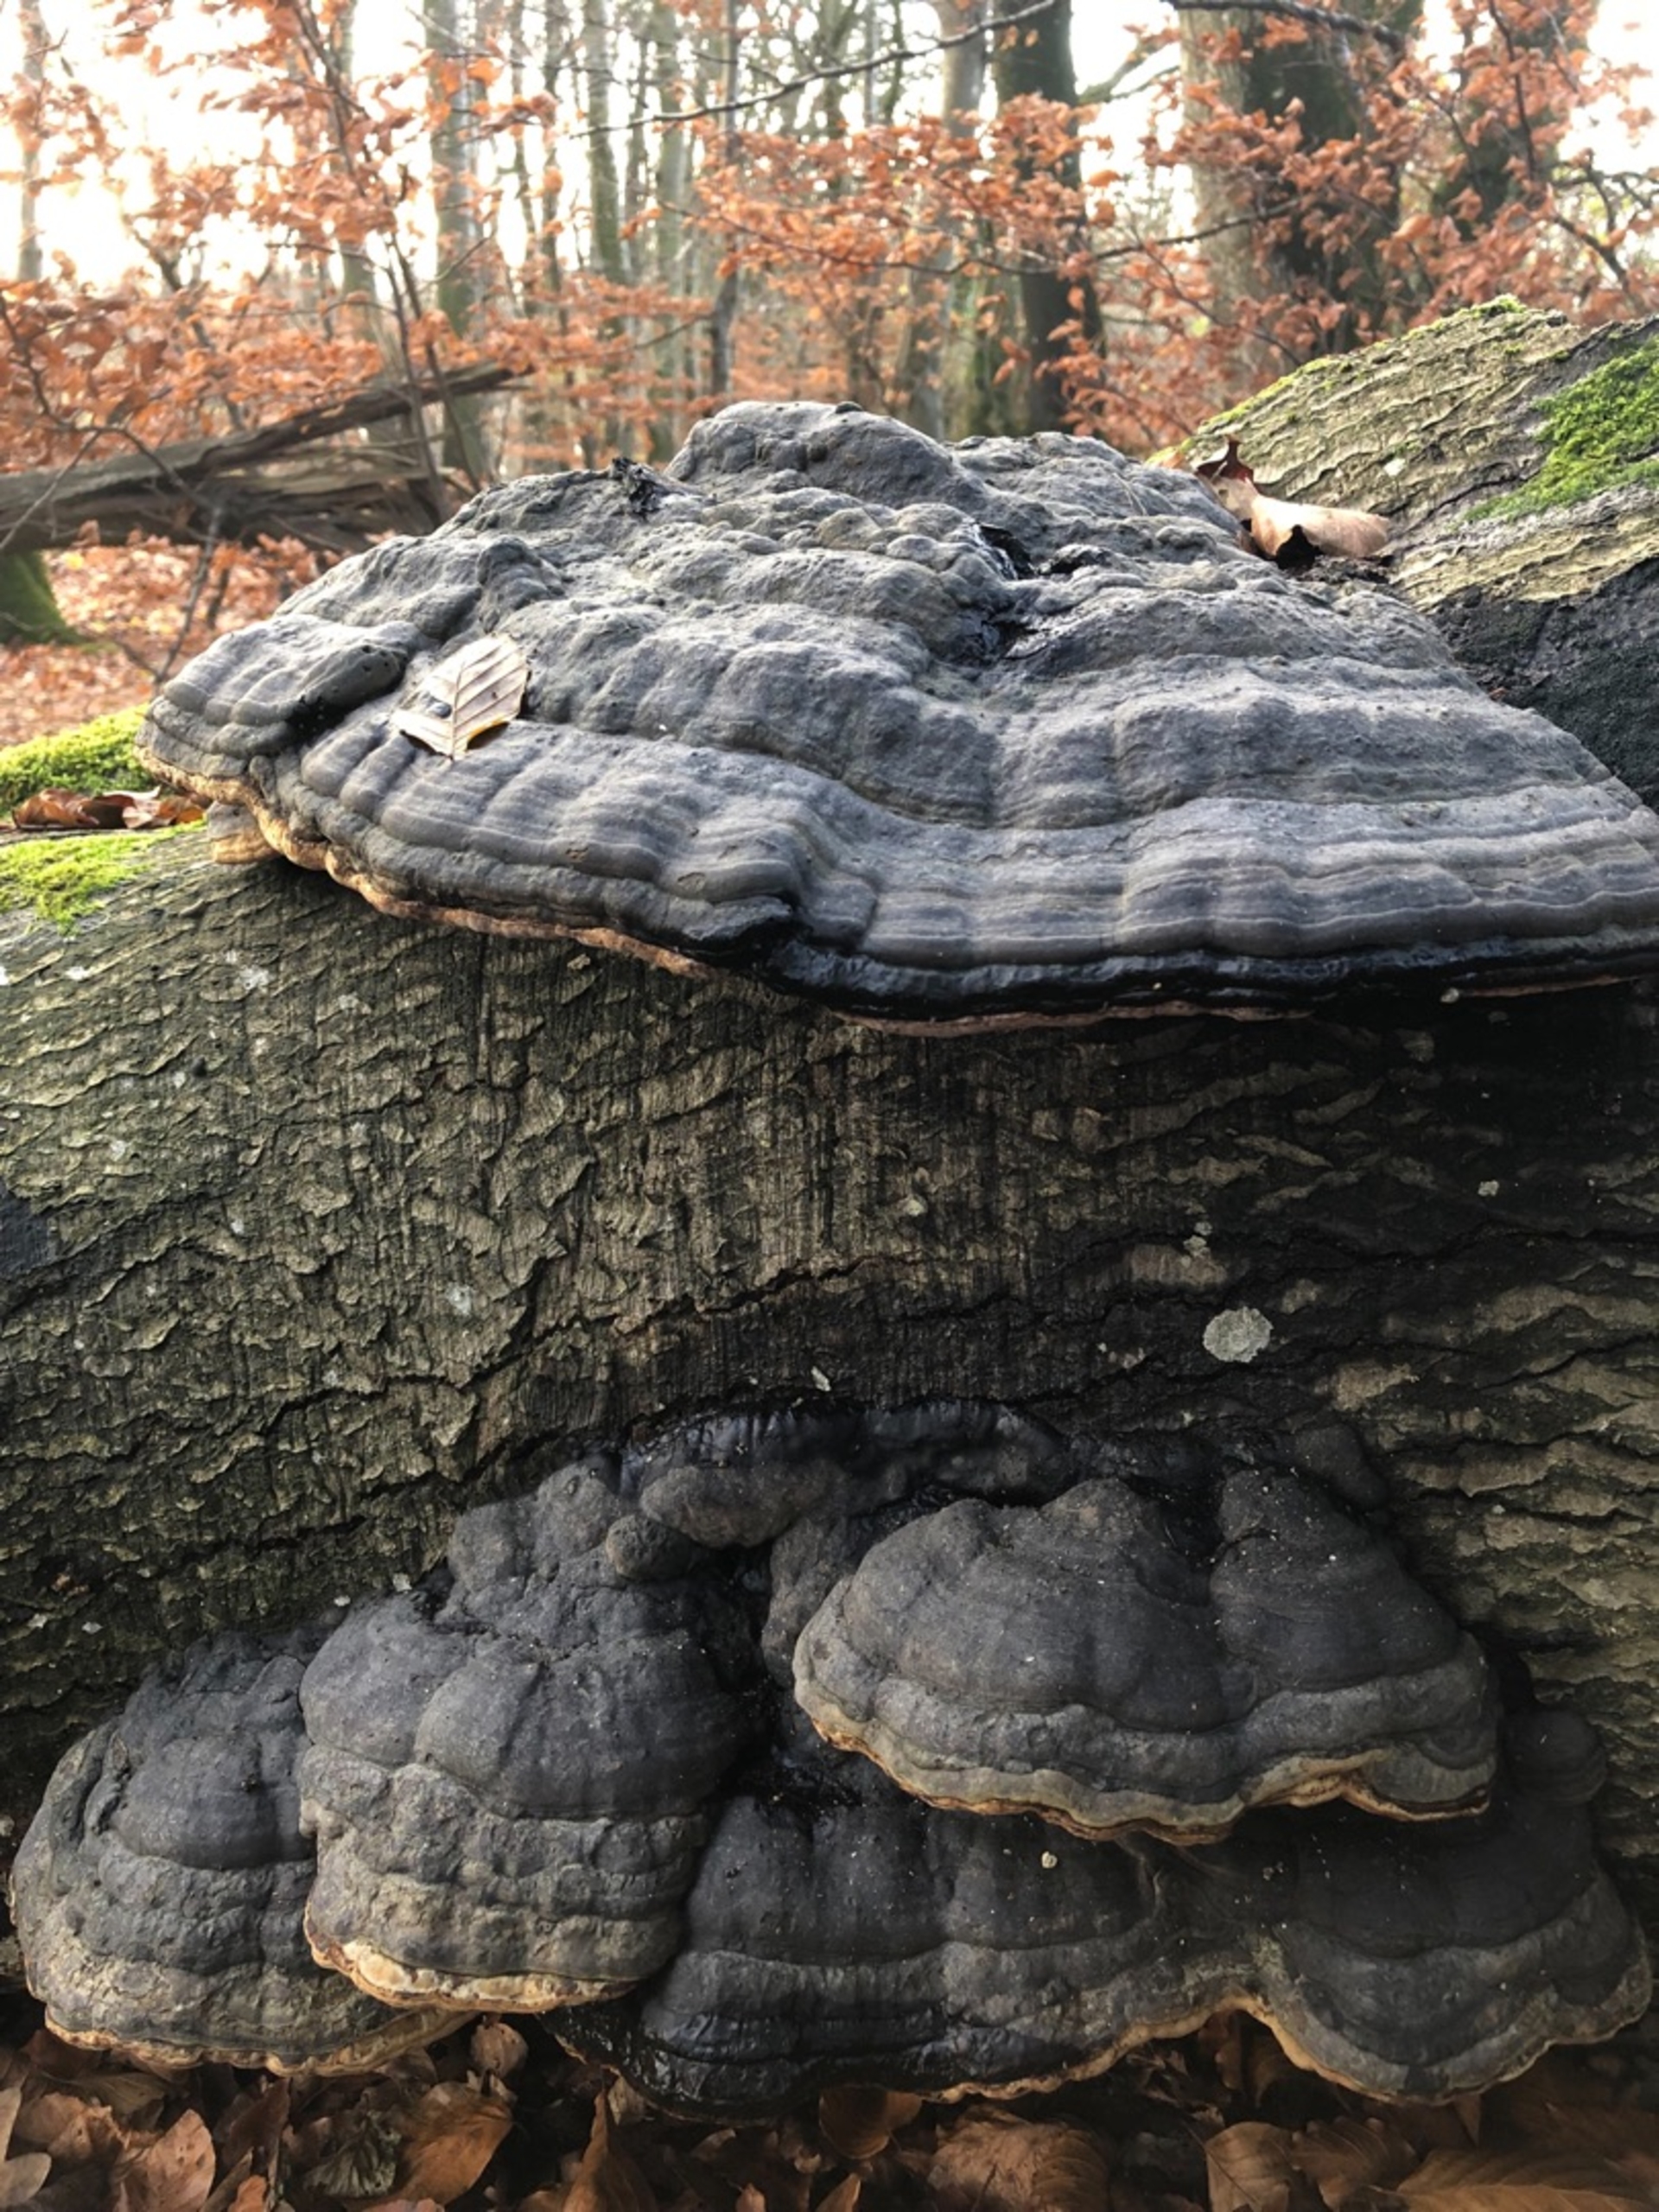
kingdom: Fungi
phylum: Basidiomycota
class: Agaricomycetes
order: Polyporales
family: Polyporaceae
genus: Fomes
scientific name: Fomes
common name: Tøndersvamp
